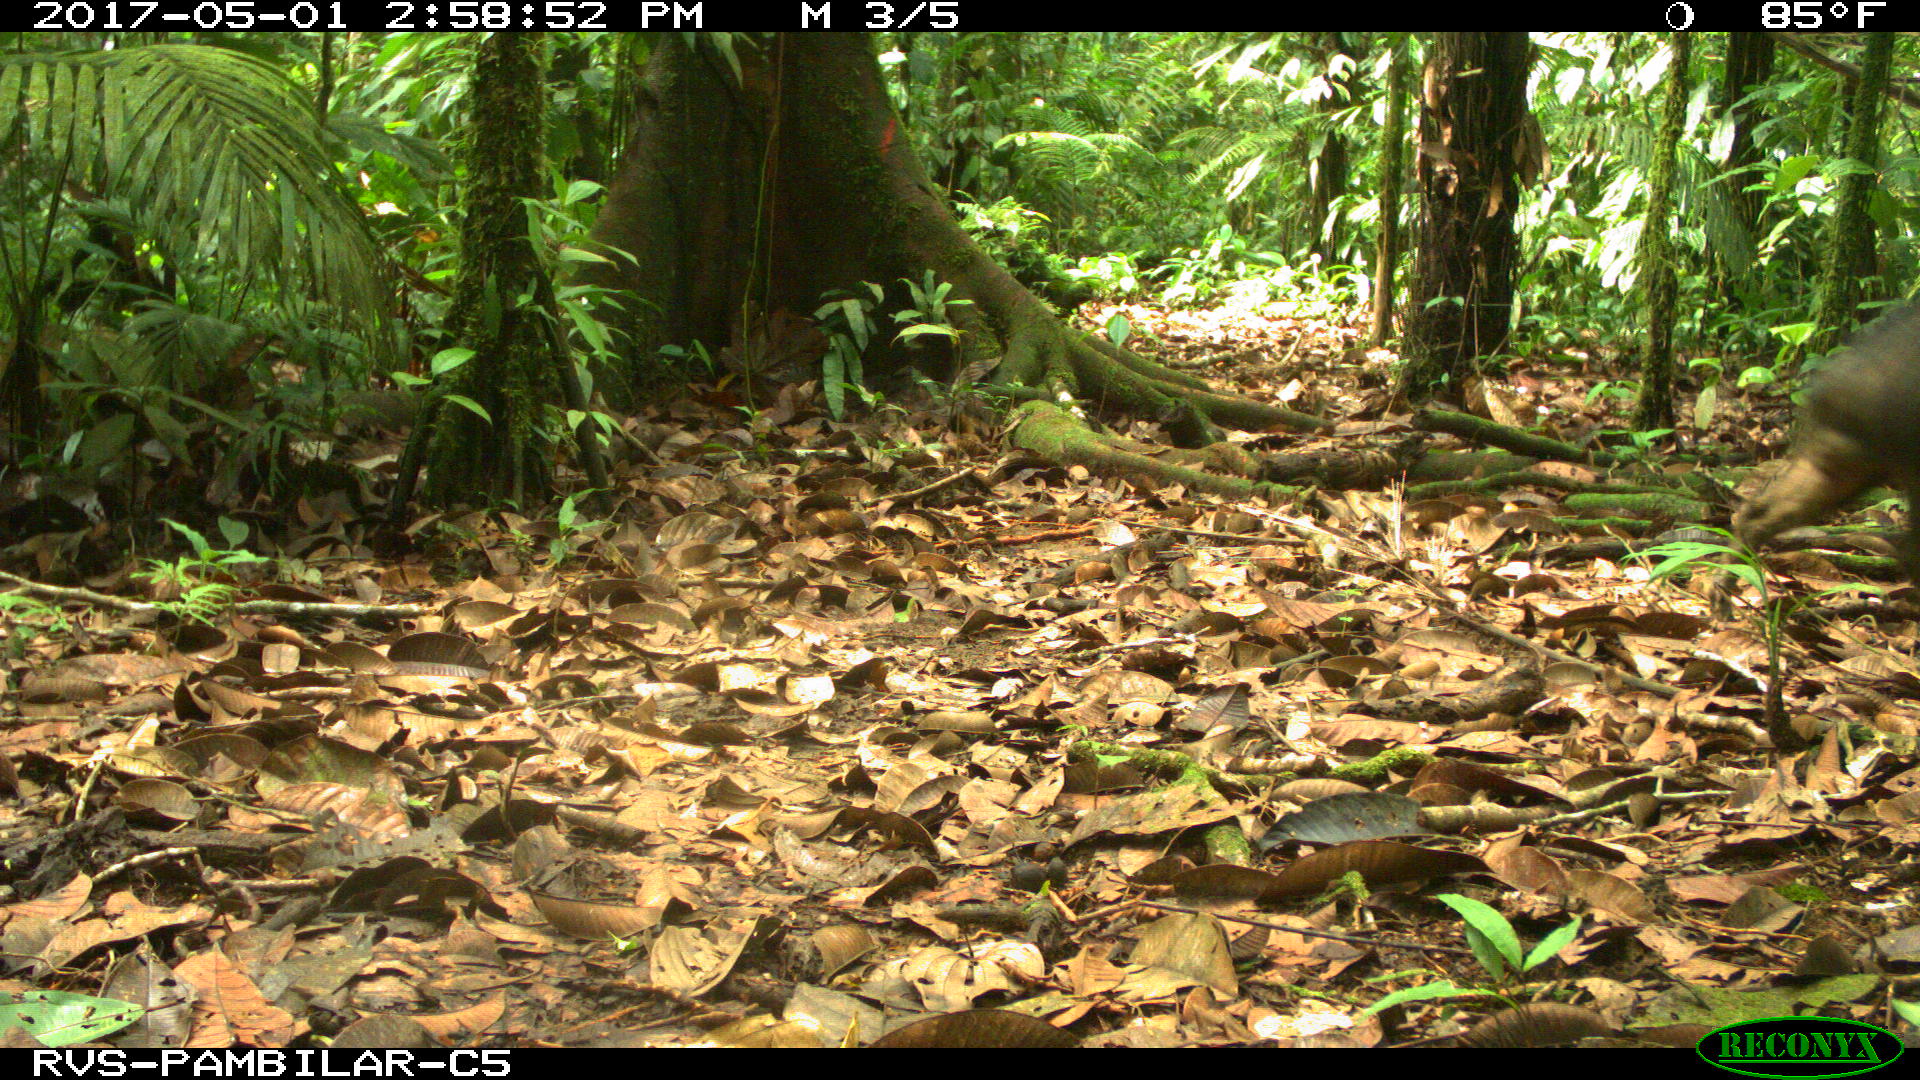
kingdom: Animalia
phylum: Chordata
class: Mammalia
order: Artiodactyla
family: Tayassuidae
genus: Tayassu
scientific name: Tayassu pecari
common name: White-lipped peccary
